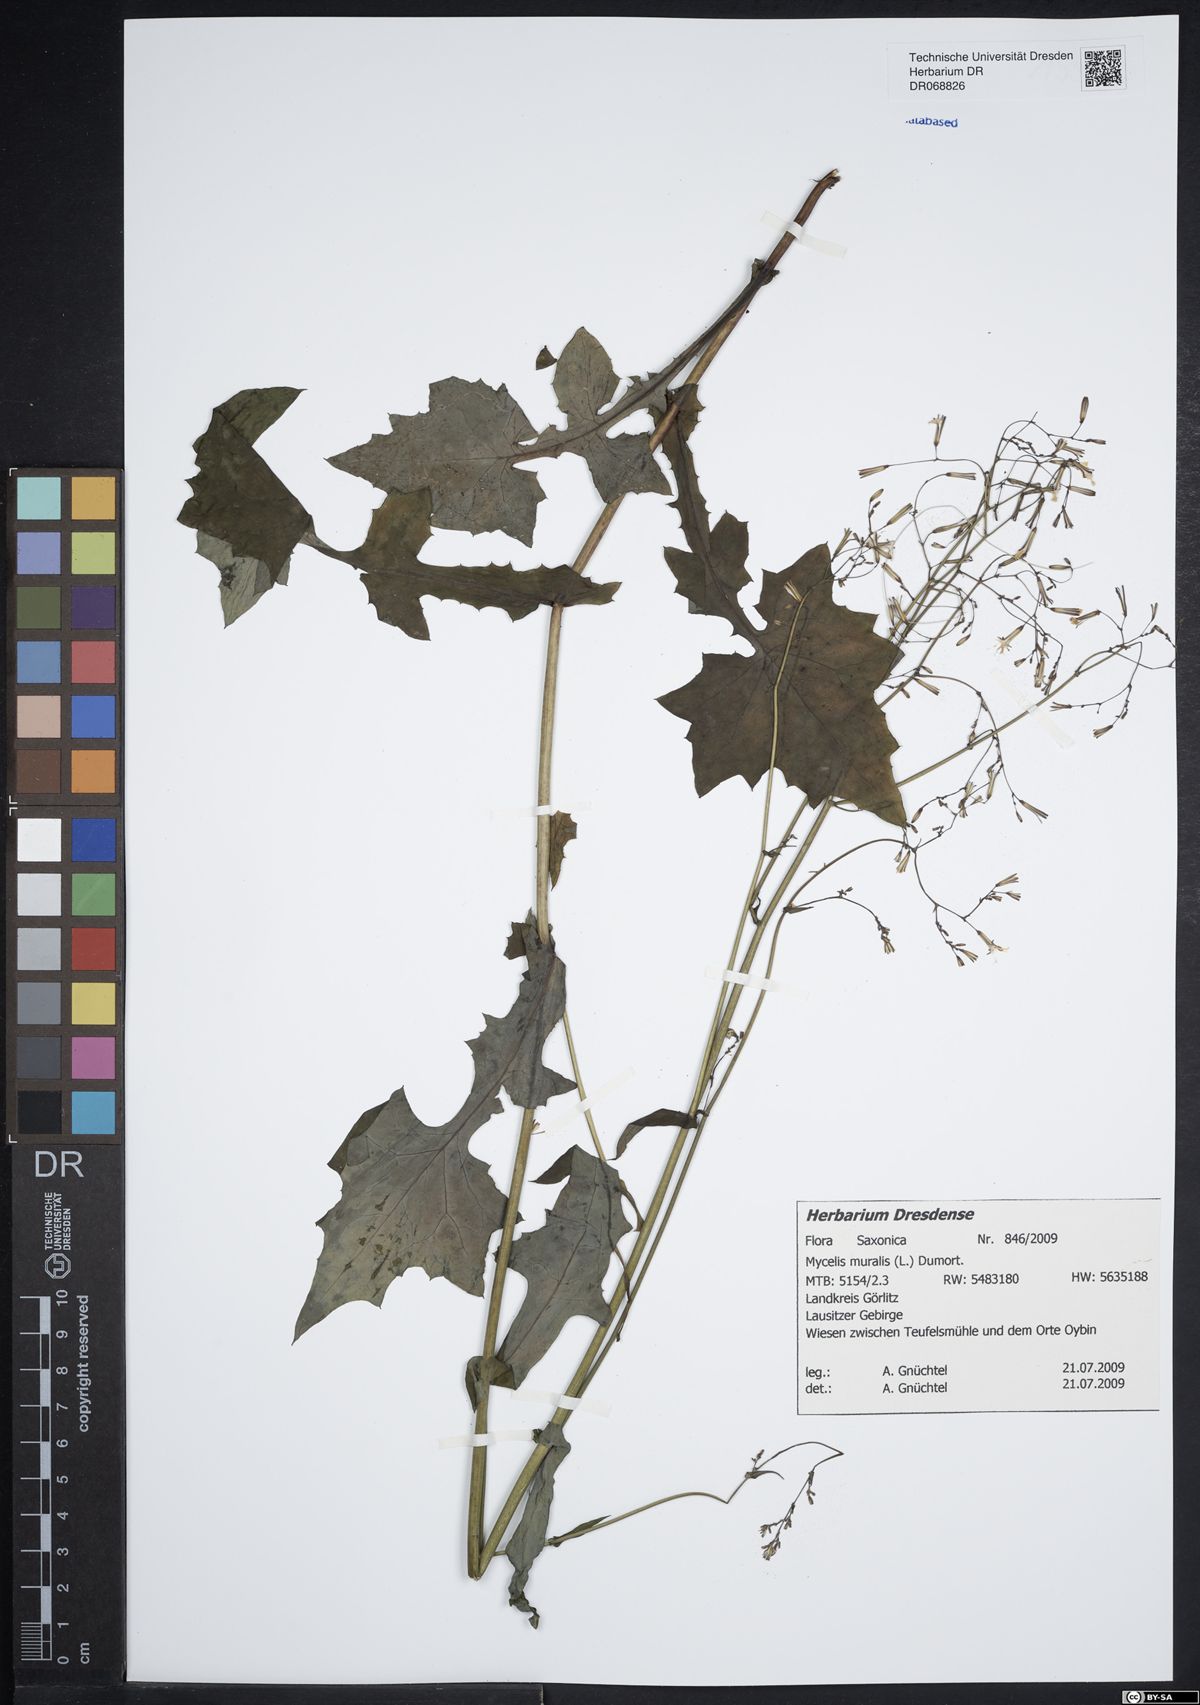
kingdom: Plantae
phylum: Tracheophyta
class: Magnoliopsida
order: Asterales
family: Asteraceae
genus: Mycelis
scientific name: Mycelis muralis
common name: Wall lettuce
